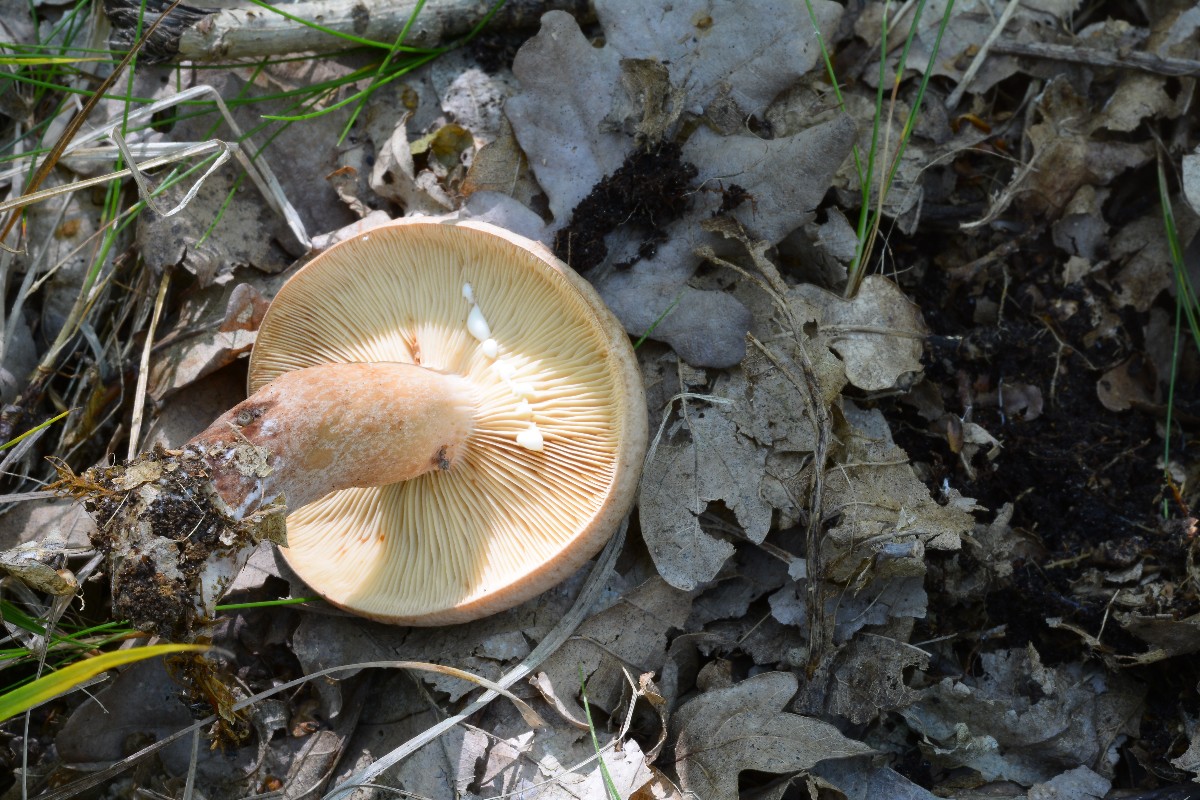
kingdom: Fungi
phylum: Basidiomycota
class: Agaricomycetes
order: Russulales
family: Russulaceae
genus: Lactarius
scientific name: Lactarius quietus
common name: ege-mælkehat
